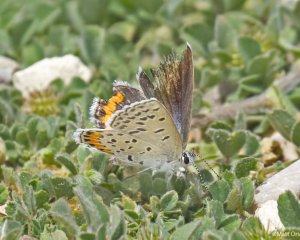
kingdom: Animalia
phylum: Arthropoda
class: Insecta
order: Lepidoptera
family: Lycaenidae
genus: Plebejus
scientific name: Plebejus acmon
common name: Acmon Blue
